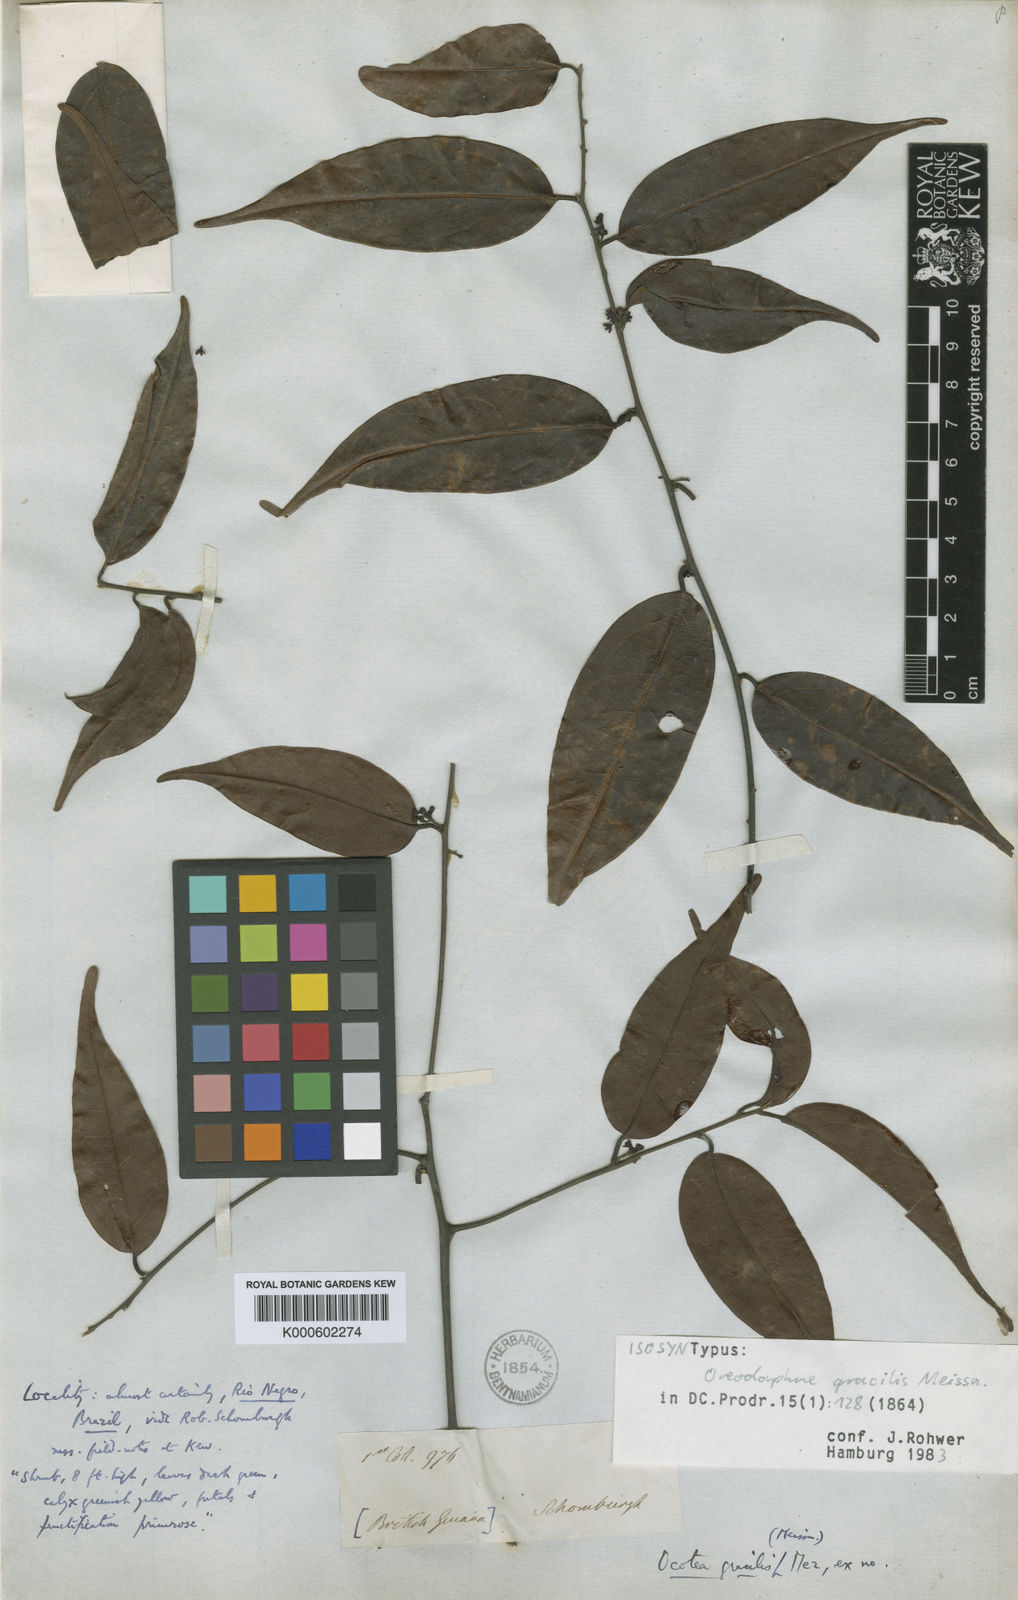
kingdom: Plantae
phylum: Tracheophyta
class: Magnoliopsida
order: Laurales
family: Lauraceae
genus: Ocotea
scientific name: Ocotea gracilis
